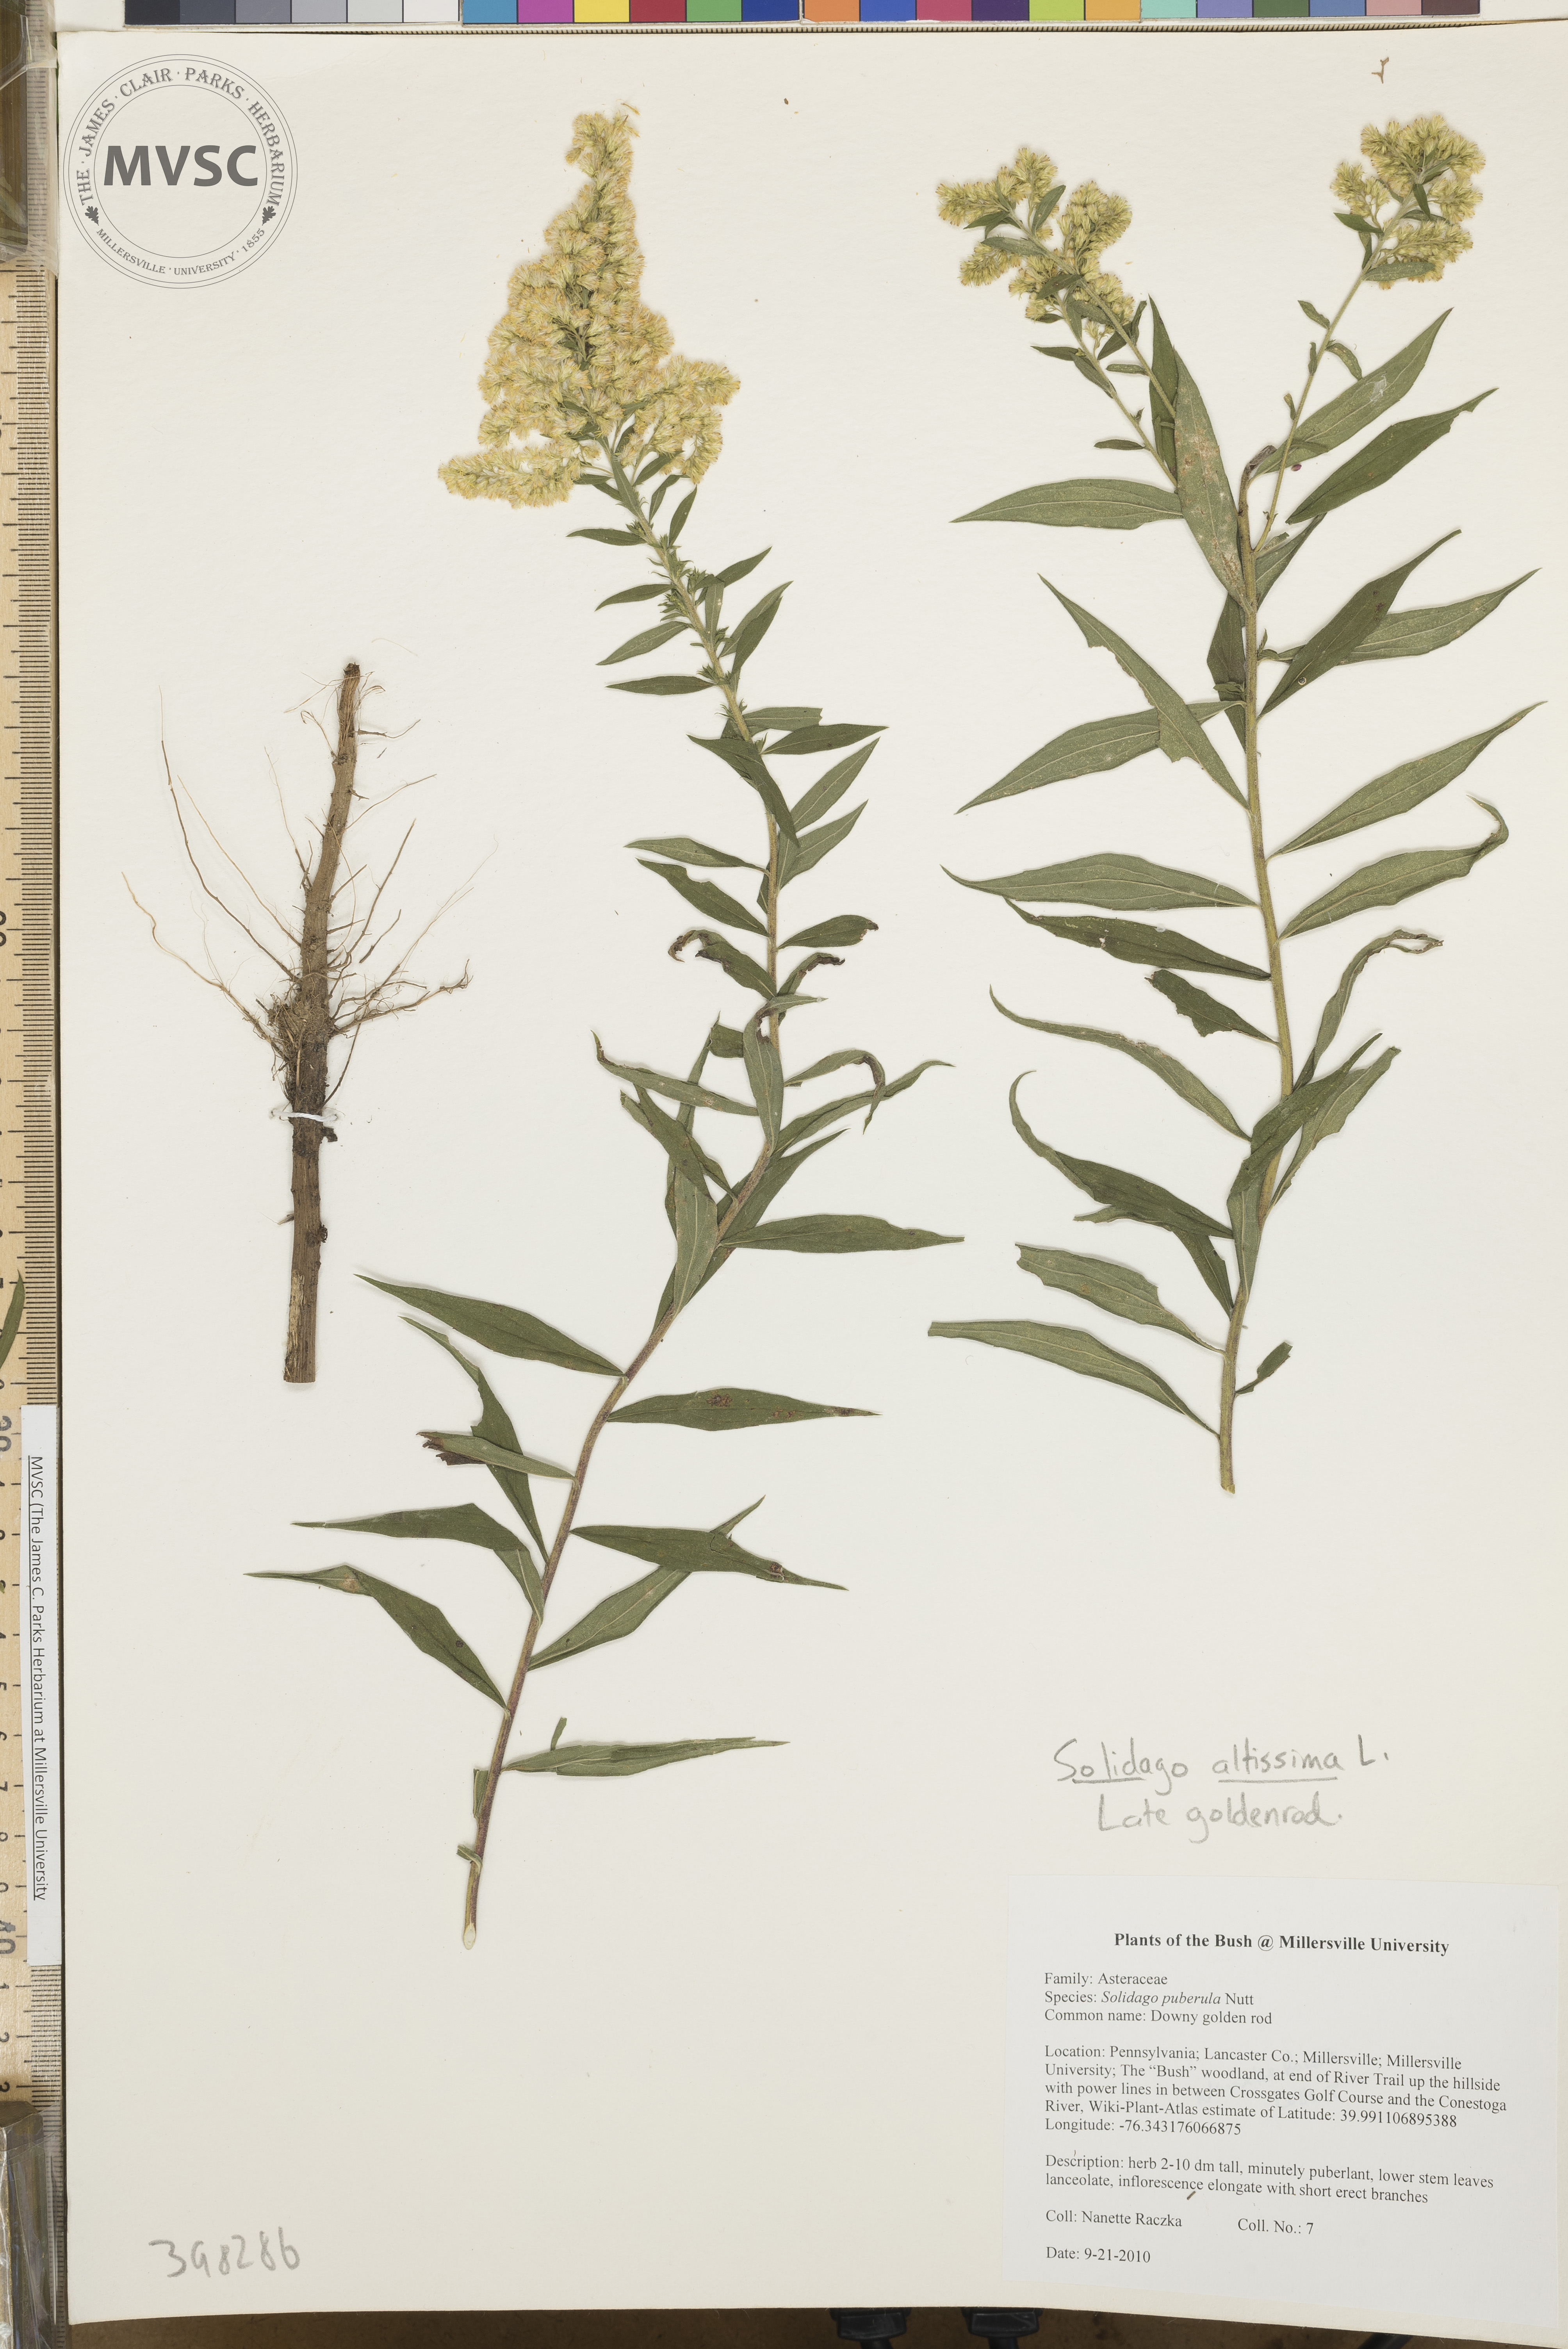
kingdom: Plantae
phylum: Tracheophyta
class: Magnoliopsida
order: Asterales
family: Asteraceae
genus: Solidago
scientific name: Solidago altissima
